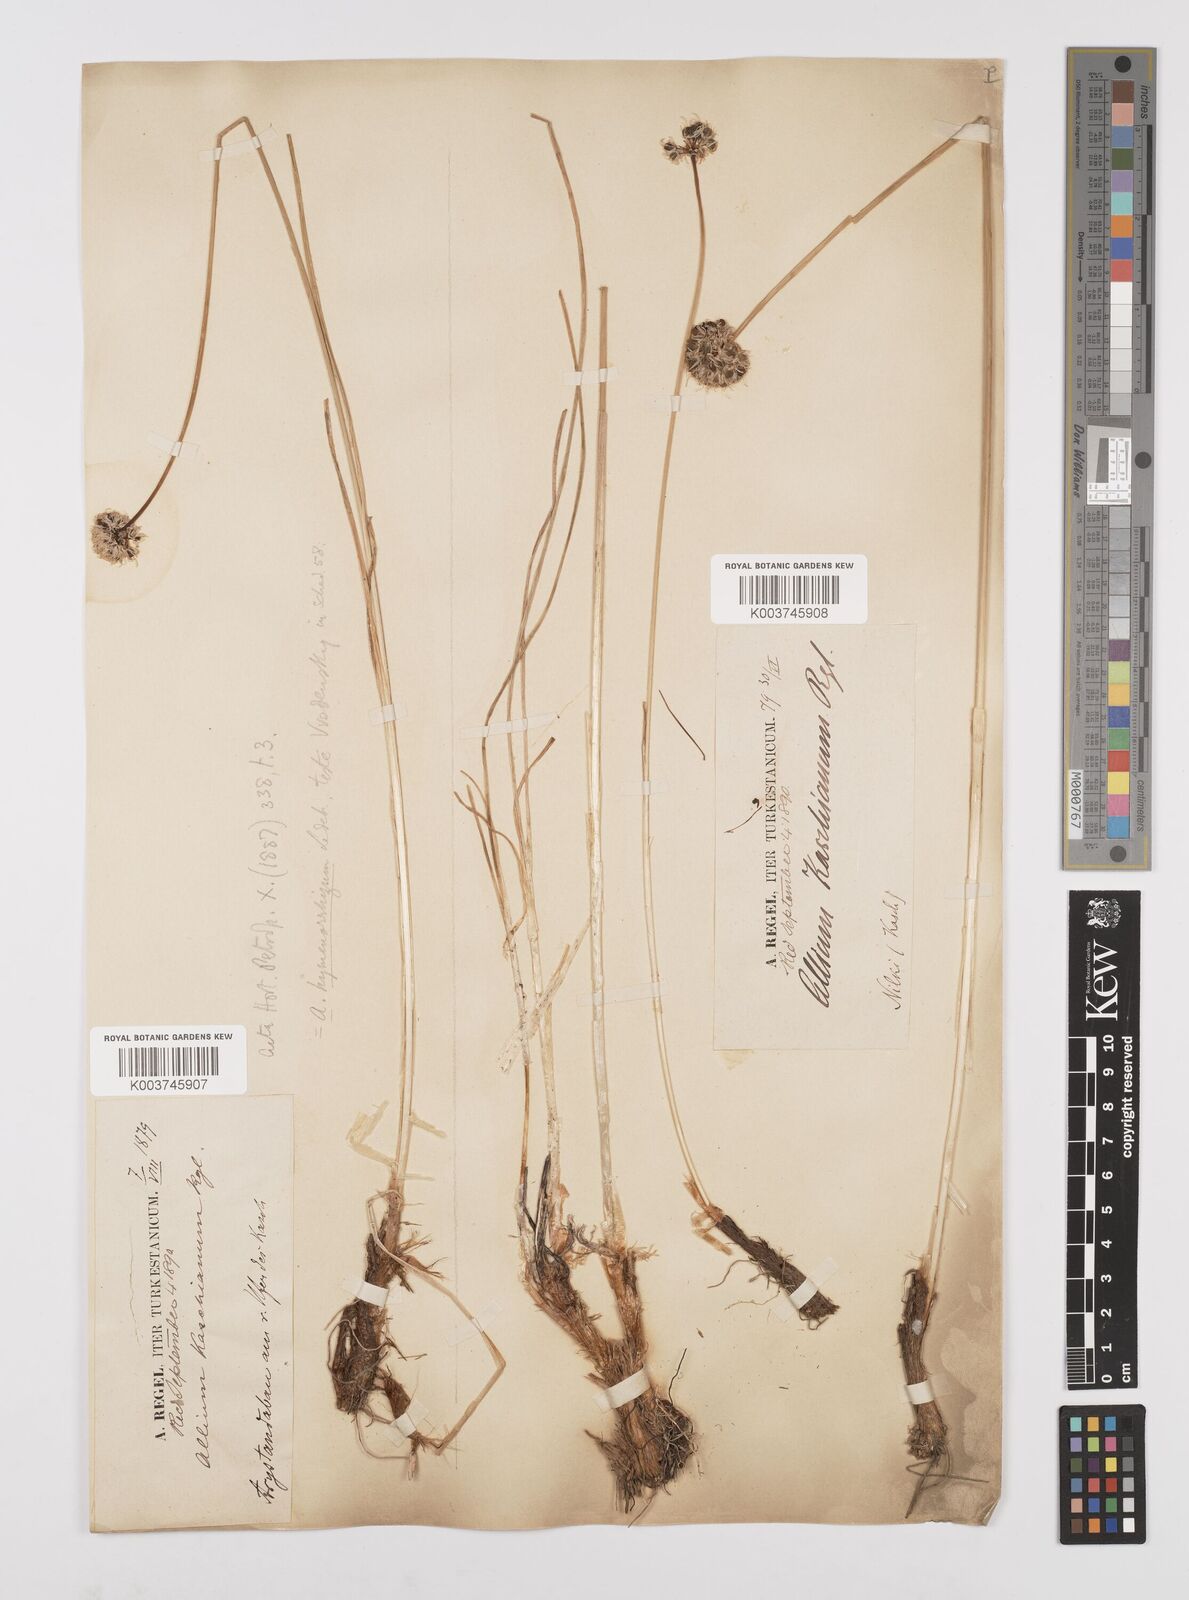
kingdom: Plantae
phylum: Tracheophyta
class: Liliopsida
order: Asparagales
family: Amaryllidaceae
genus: Allium
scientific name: Allium hymenorhizum
